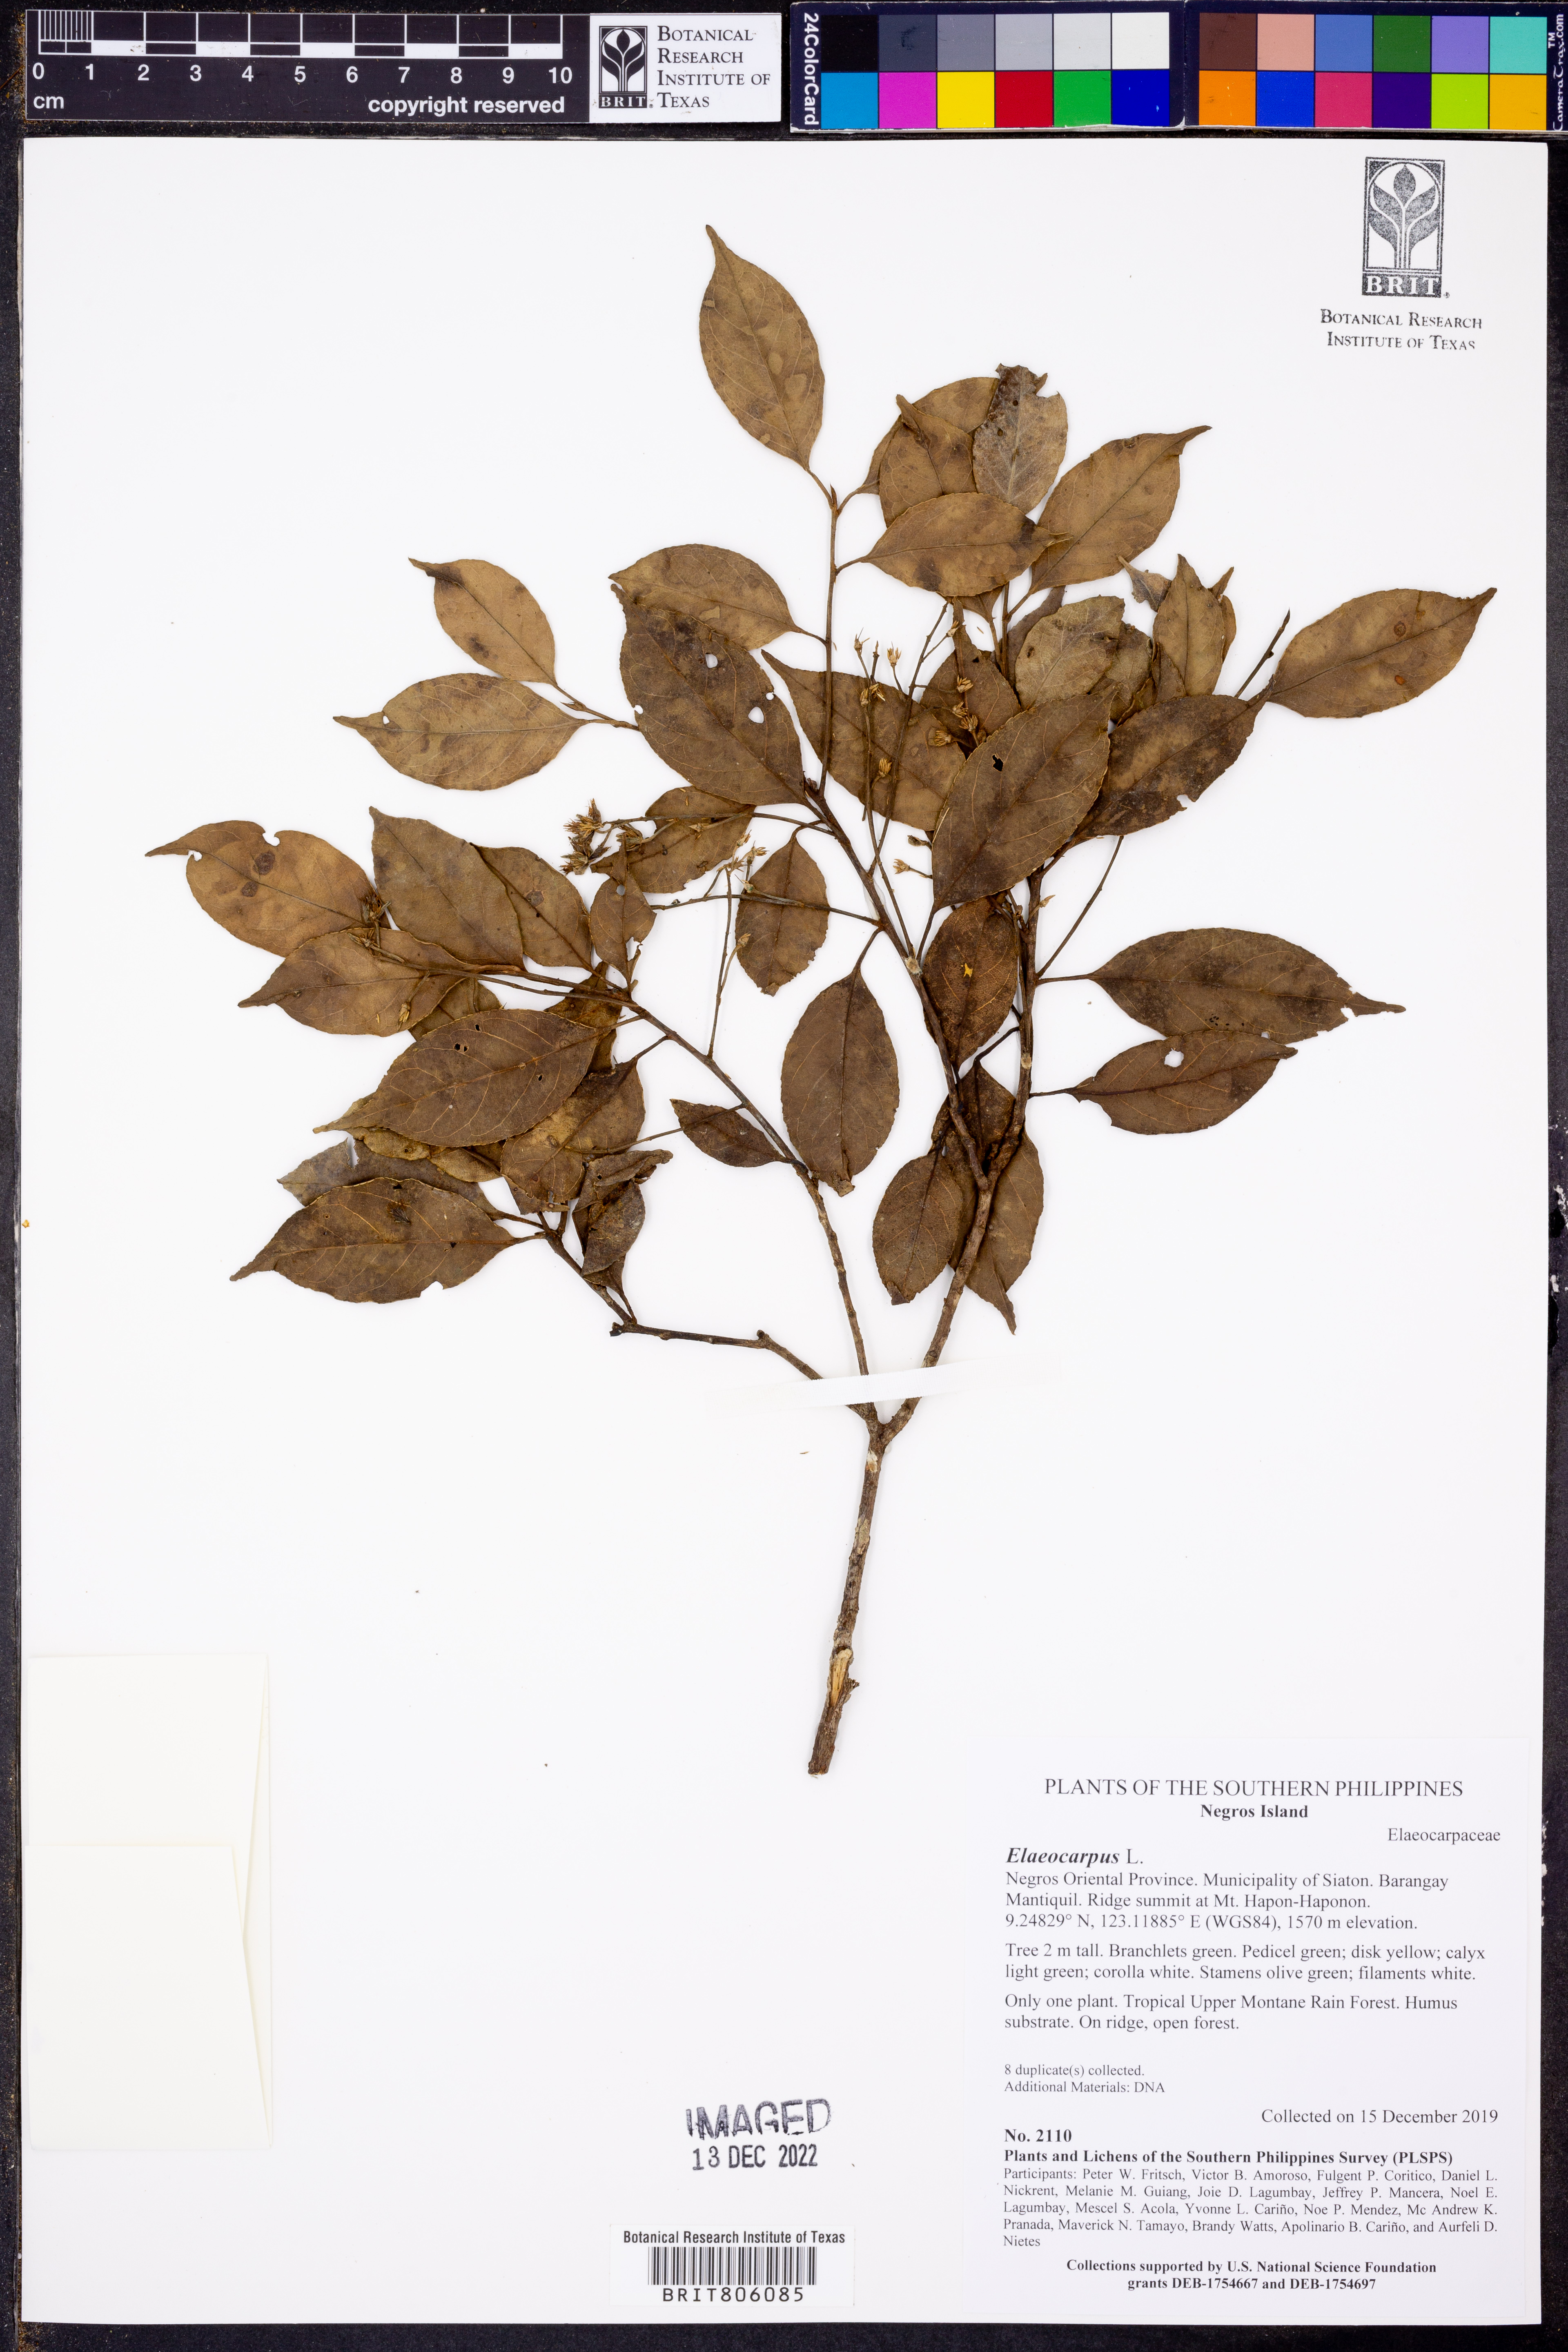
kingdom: Plantae
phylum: Tracheophyta
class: Magnoliopsida
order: Oxalidales
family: Elaeocarpaceae
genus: Elaeocarpus
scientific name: Elaeocarpus
